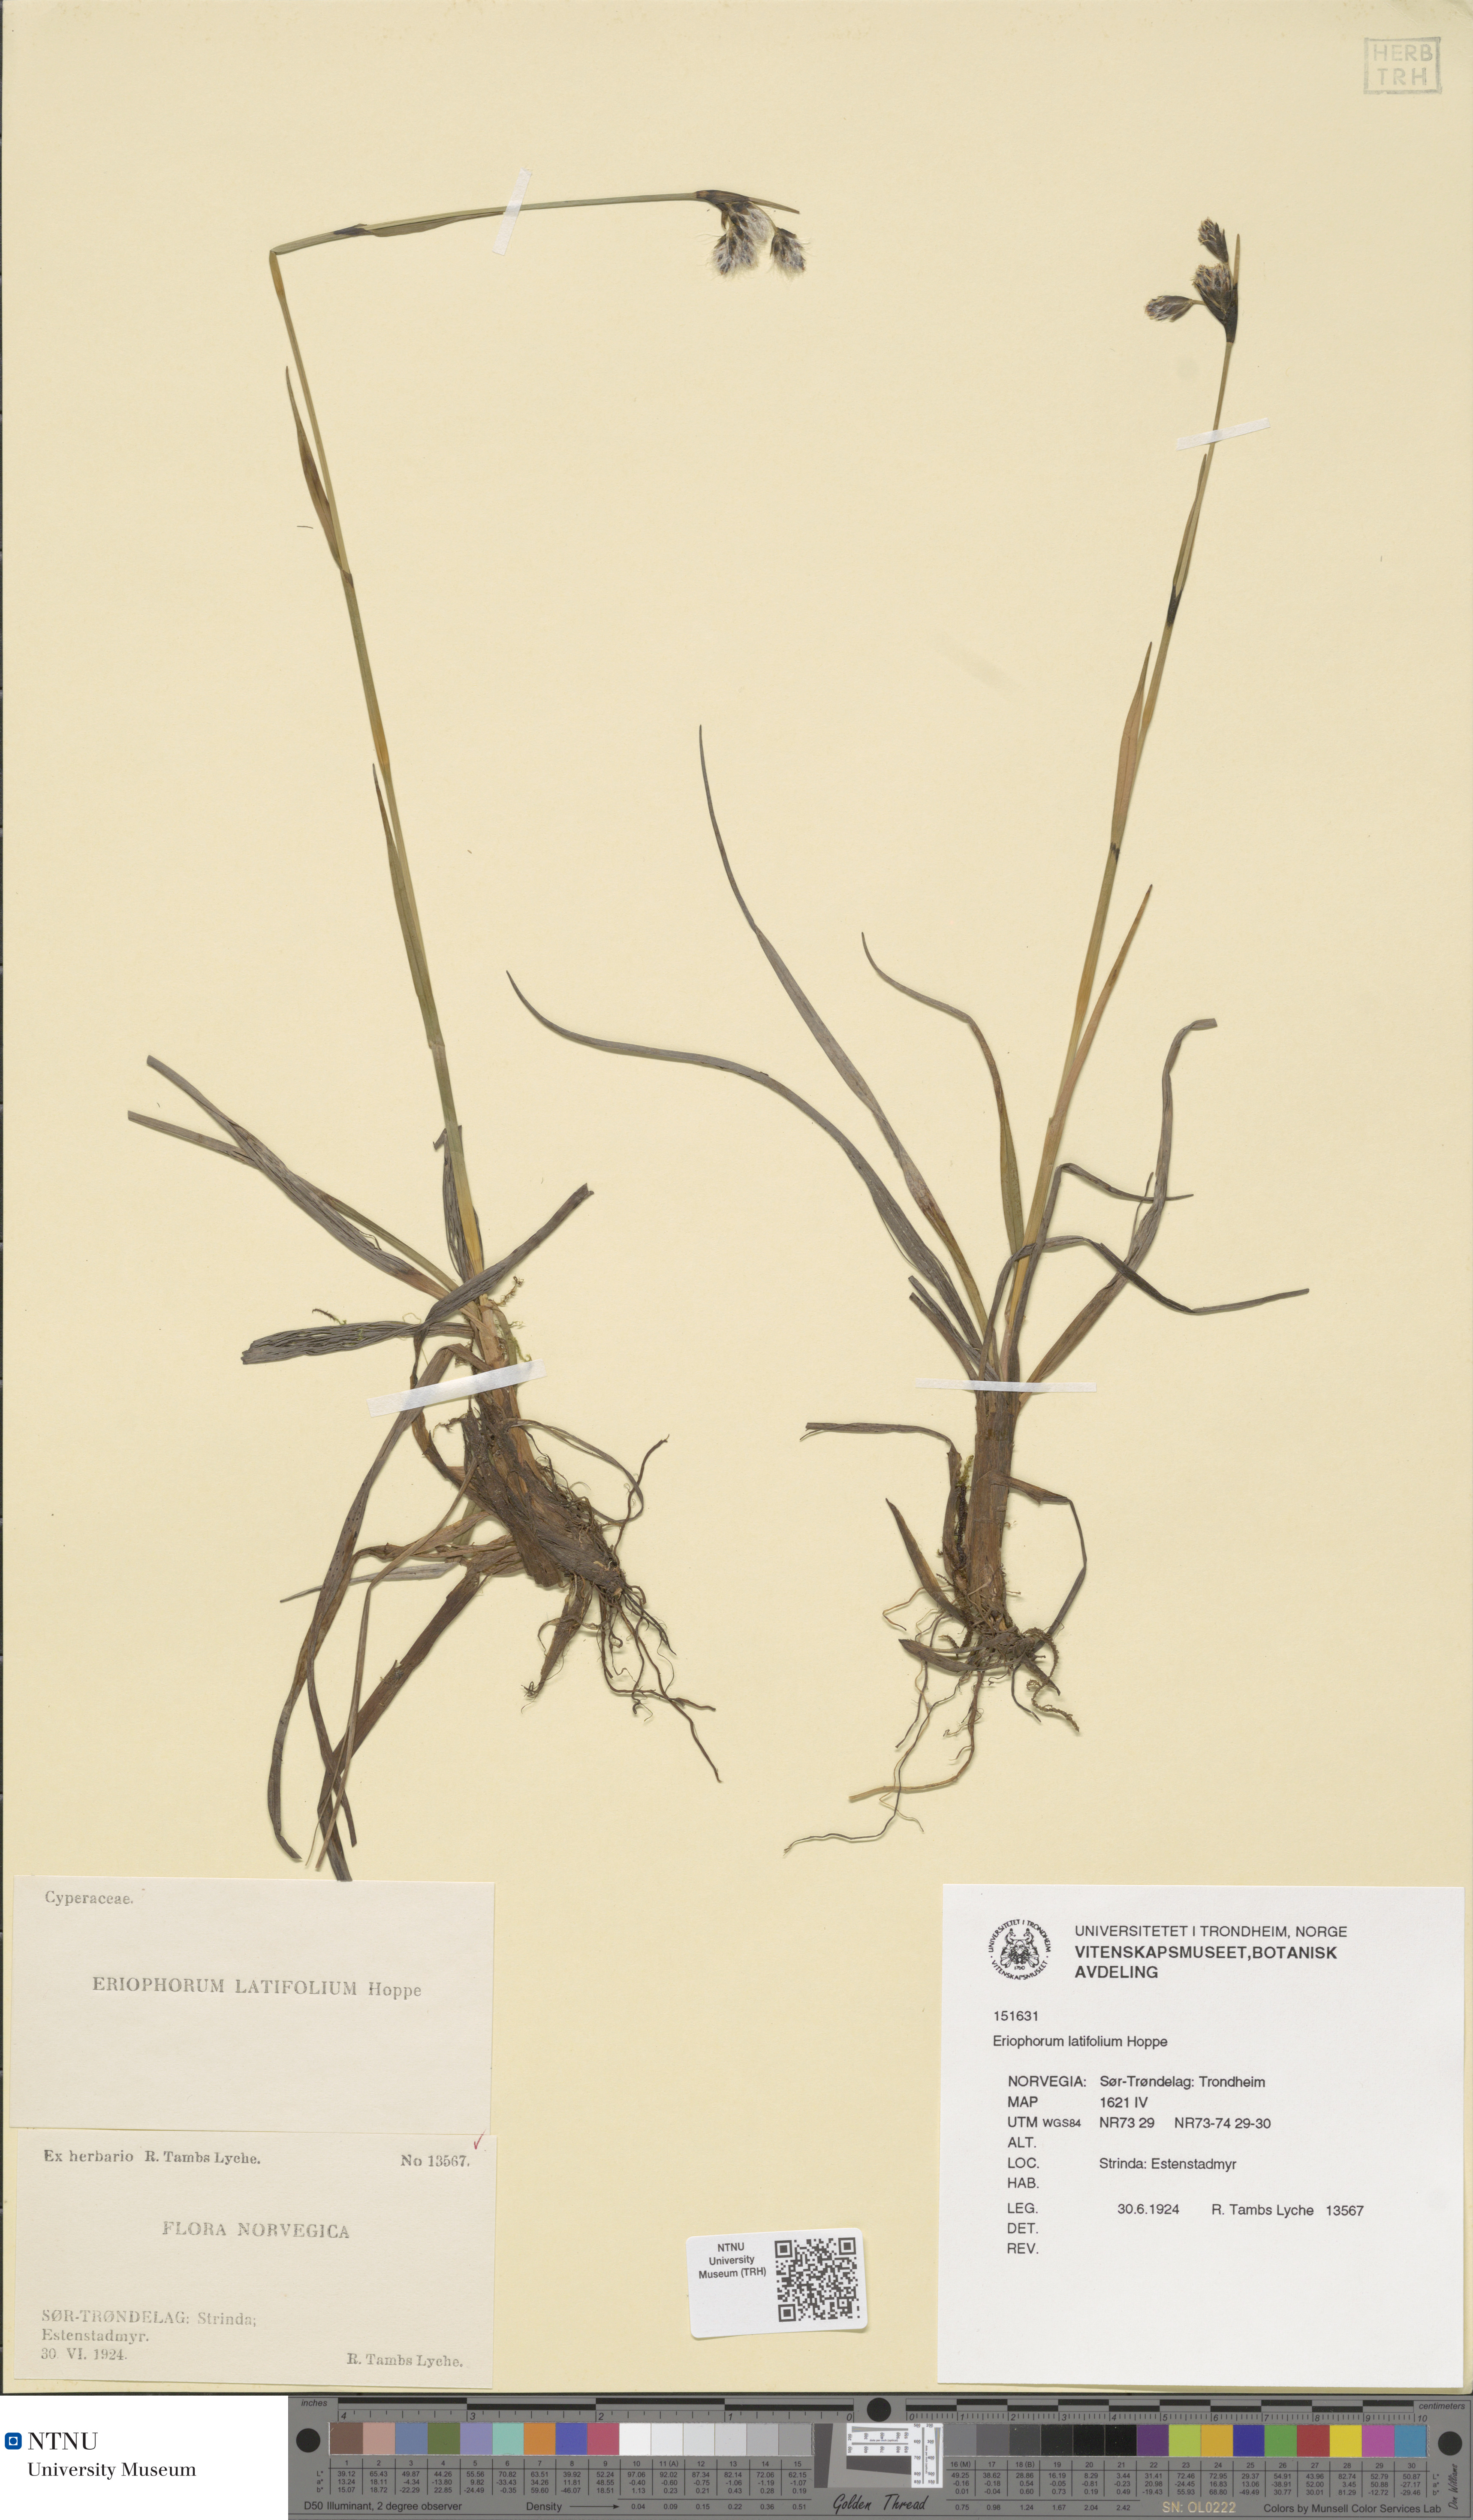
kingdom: Plantae
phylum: Tracheophyta
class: Liliopsida
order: Poales
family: Cyperaceae
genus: Eriophorum
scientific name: Eriophorum latifolium
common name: Broad-leaved cottongrass
